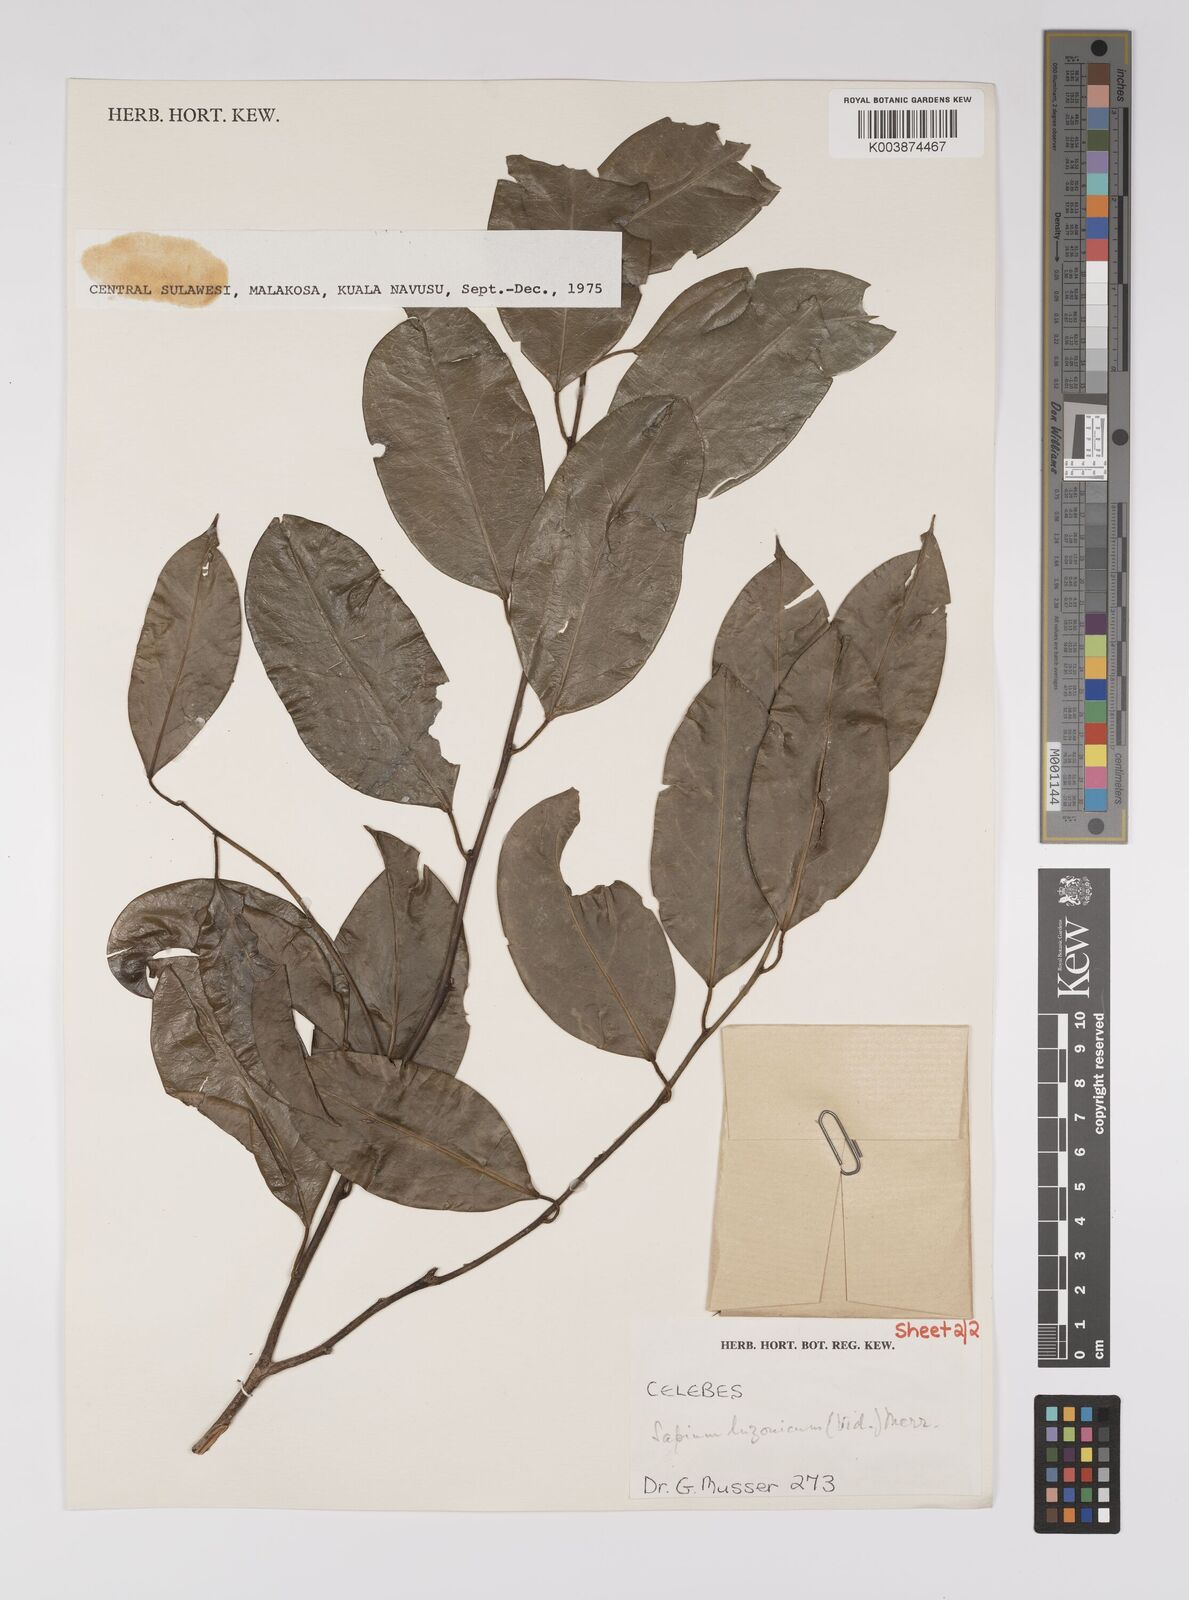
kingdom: Plantae
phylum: Tracheophyta
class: Magnoliopsida
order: Malpighiales
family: Euphorbiaceae
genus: Balakata
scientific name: Balakata luzonica
